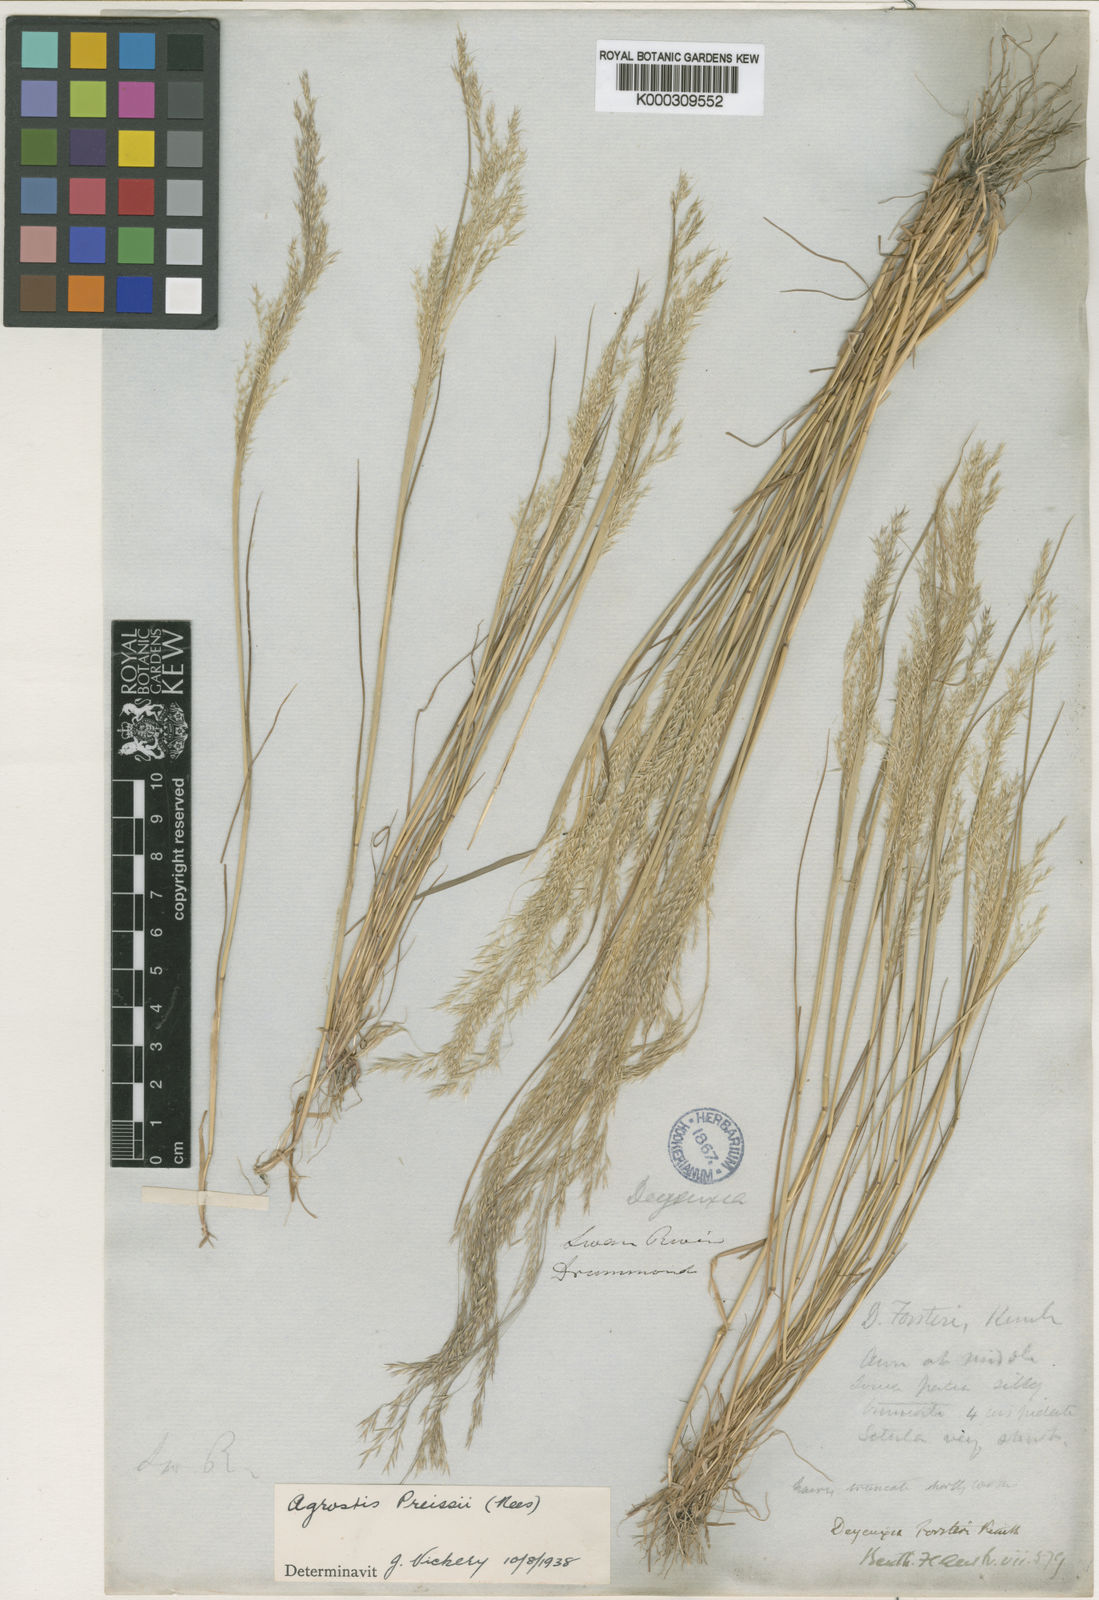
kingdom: Plantae
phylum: Tracheophyta
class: Liliopsida
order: Poales
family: Poaceae
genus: Lachnagrostis
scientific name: Lachnagrostis
